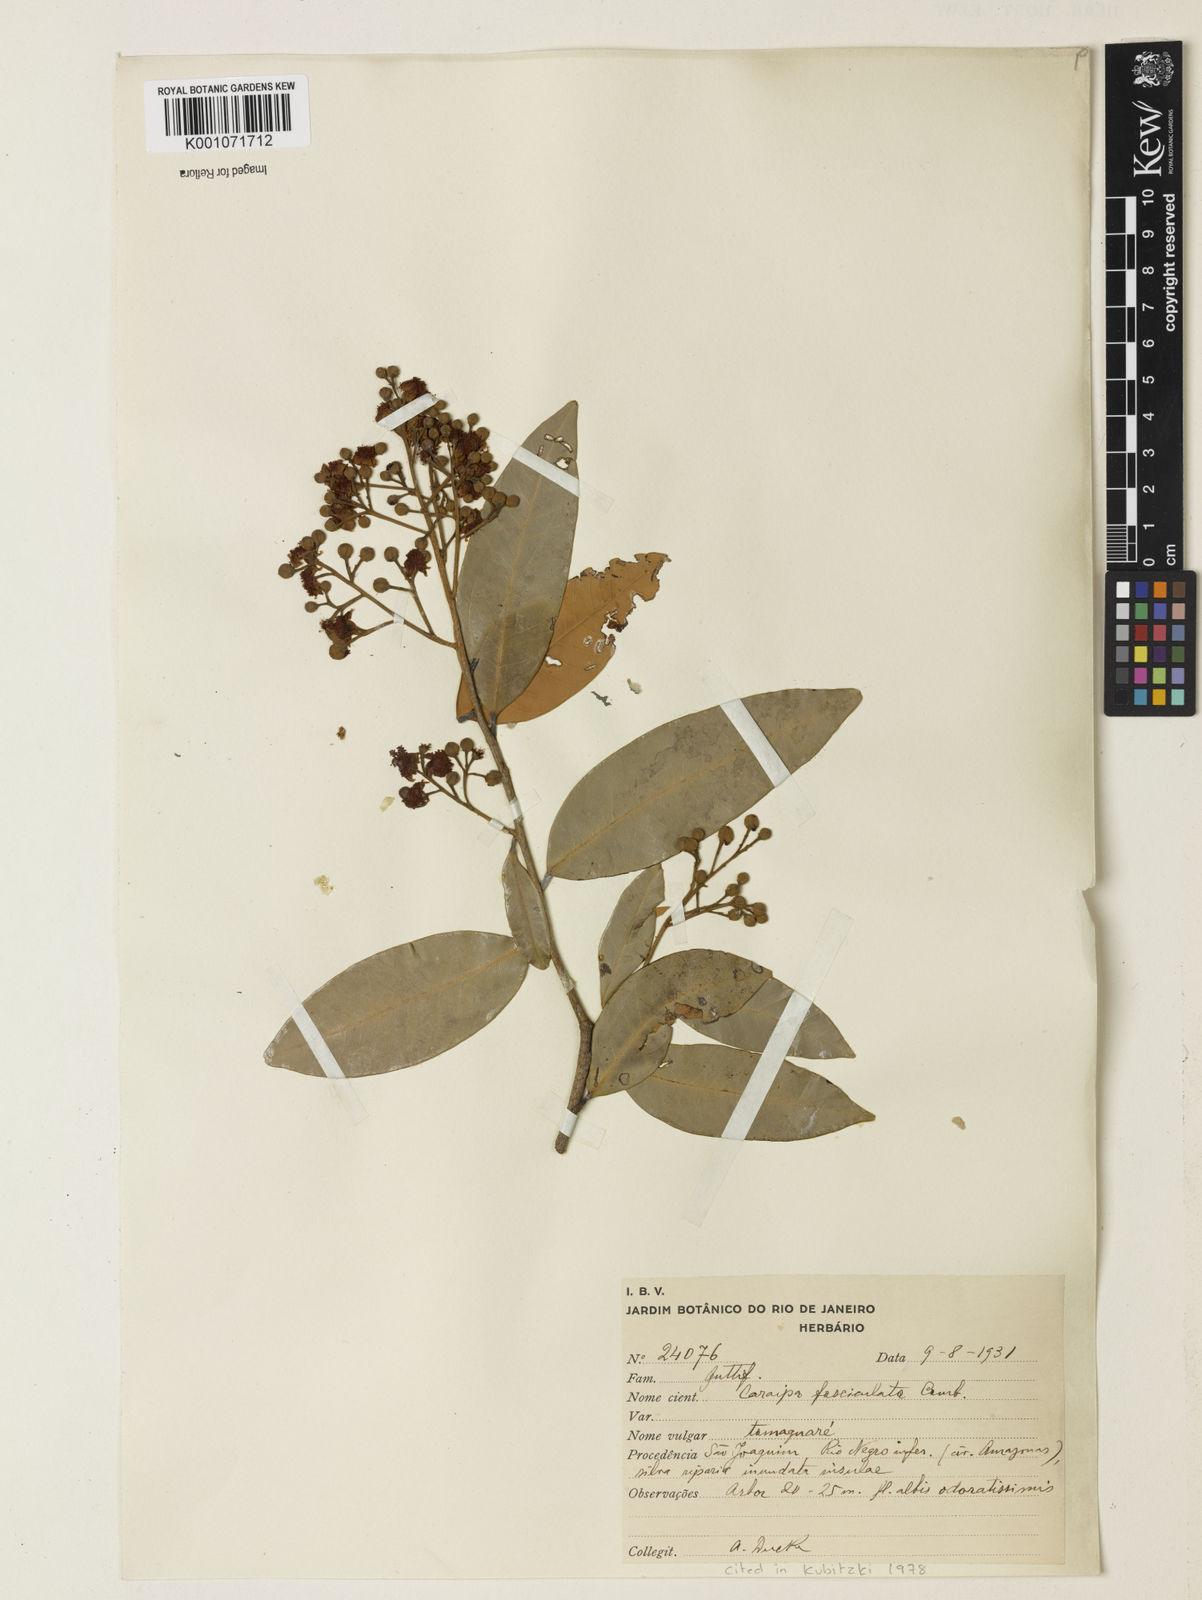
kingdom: Plantae
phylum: Tracheophyta
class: Magnoliopsida
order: Malpighiales
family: Calophyllaceae
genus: Caraipa
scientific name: Caraipa densifolia
